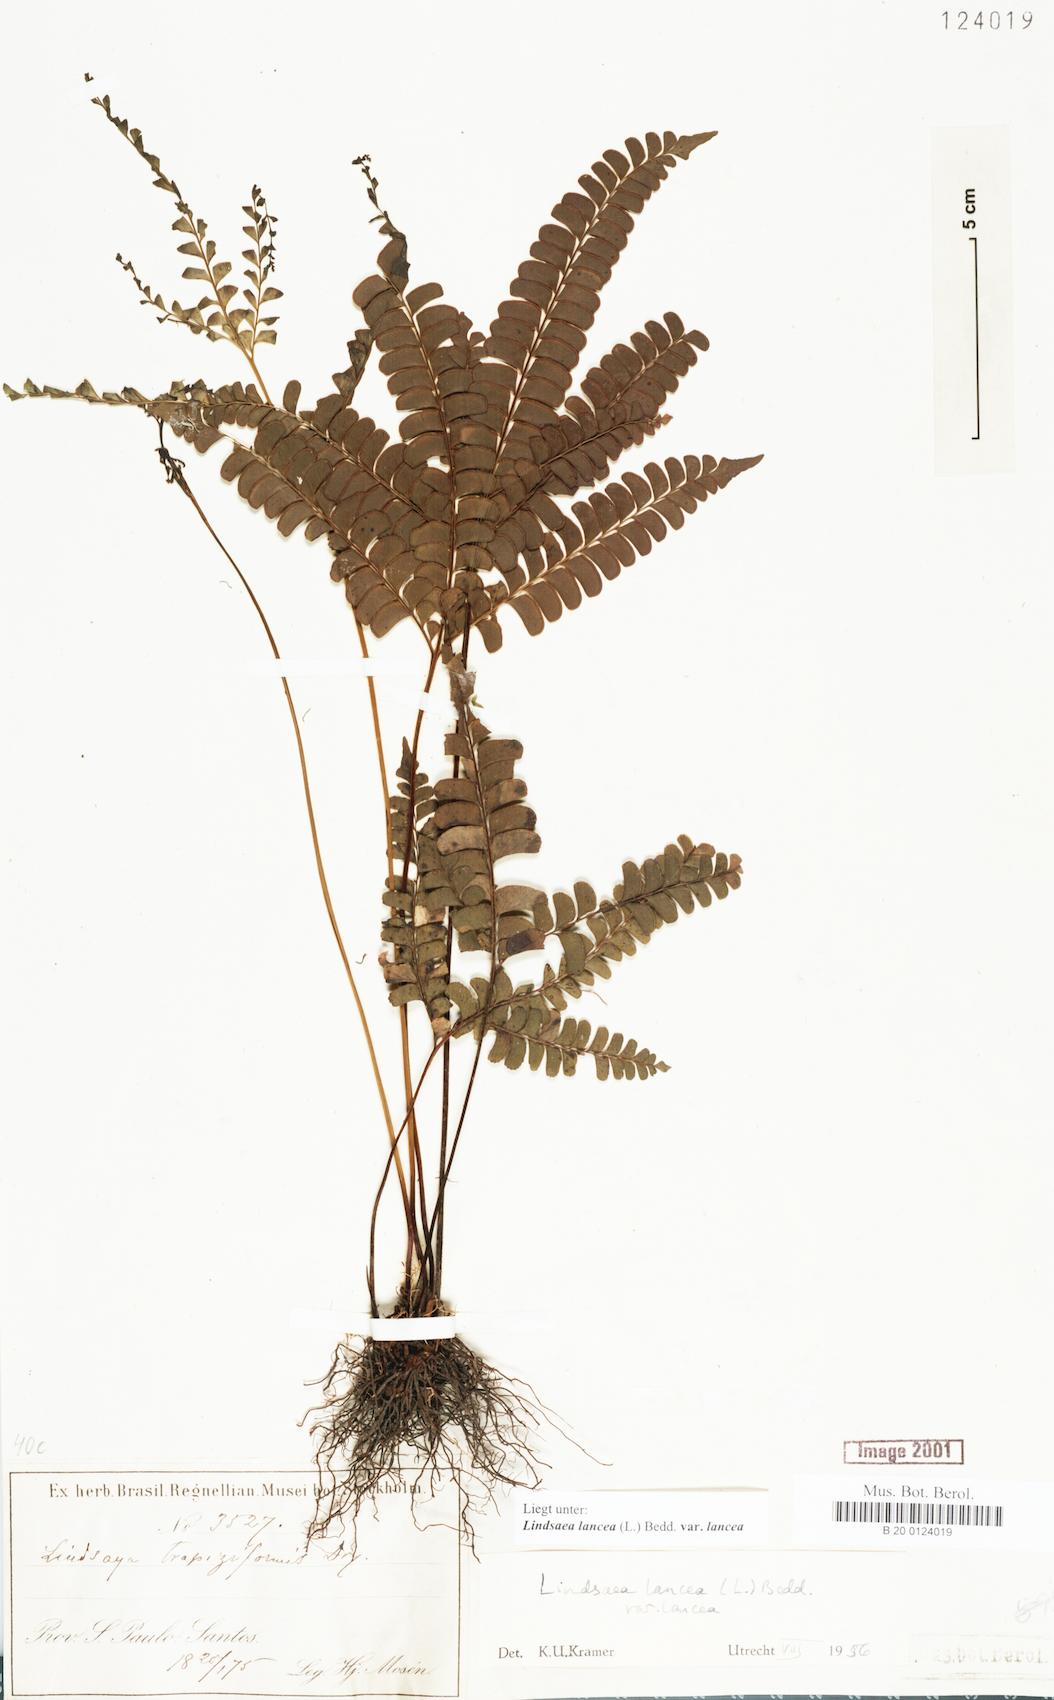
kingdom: Plantae
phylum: Tracheophyta
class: Polypodiopsida
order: Polypodiales
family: Lindsaeaceae
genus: Lindsaea
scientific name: Lindsaea lancea
